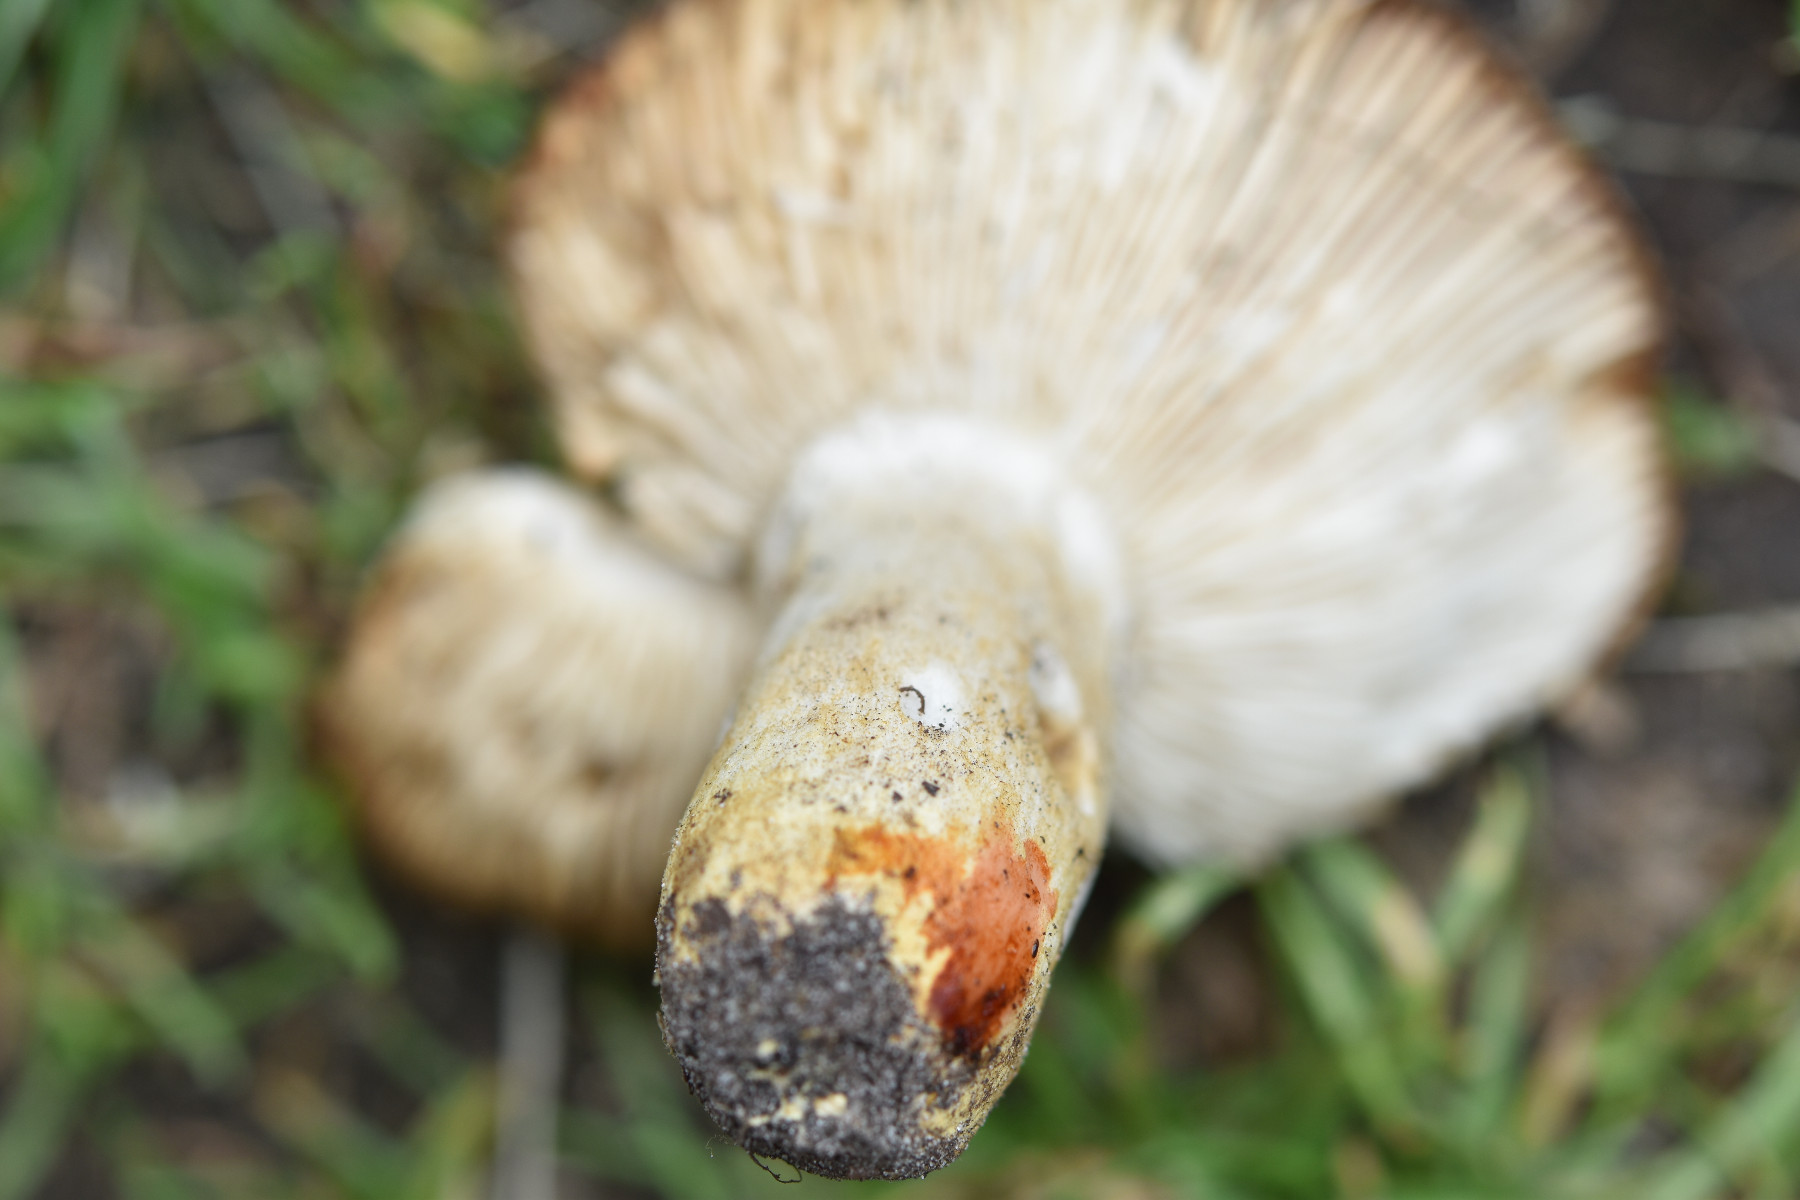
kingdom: Fungi
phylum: Basidiomycota
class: Agaricomycetes
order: Russulales
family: Russulaceae
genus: Russula
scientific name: Russula insignis
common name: gulfodet kam-skørhat
